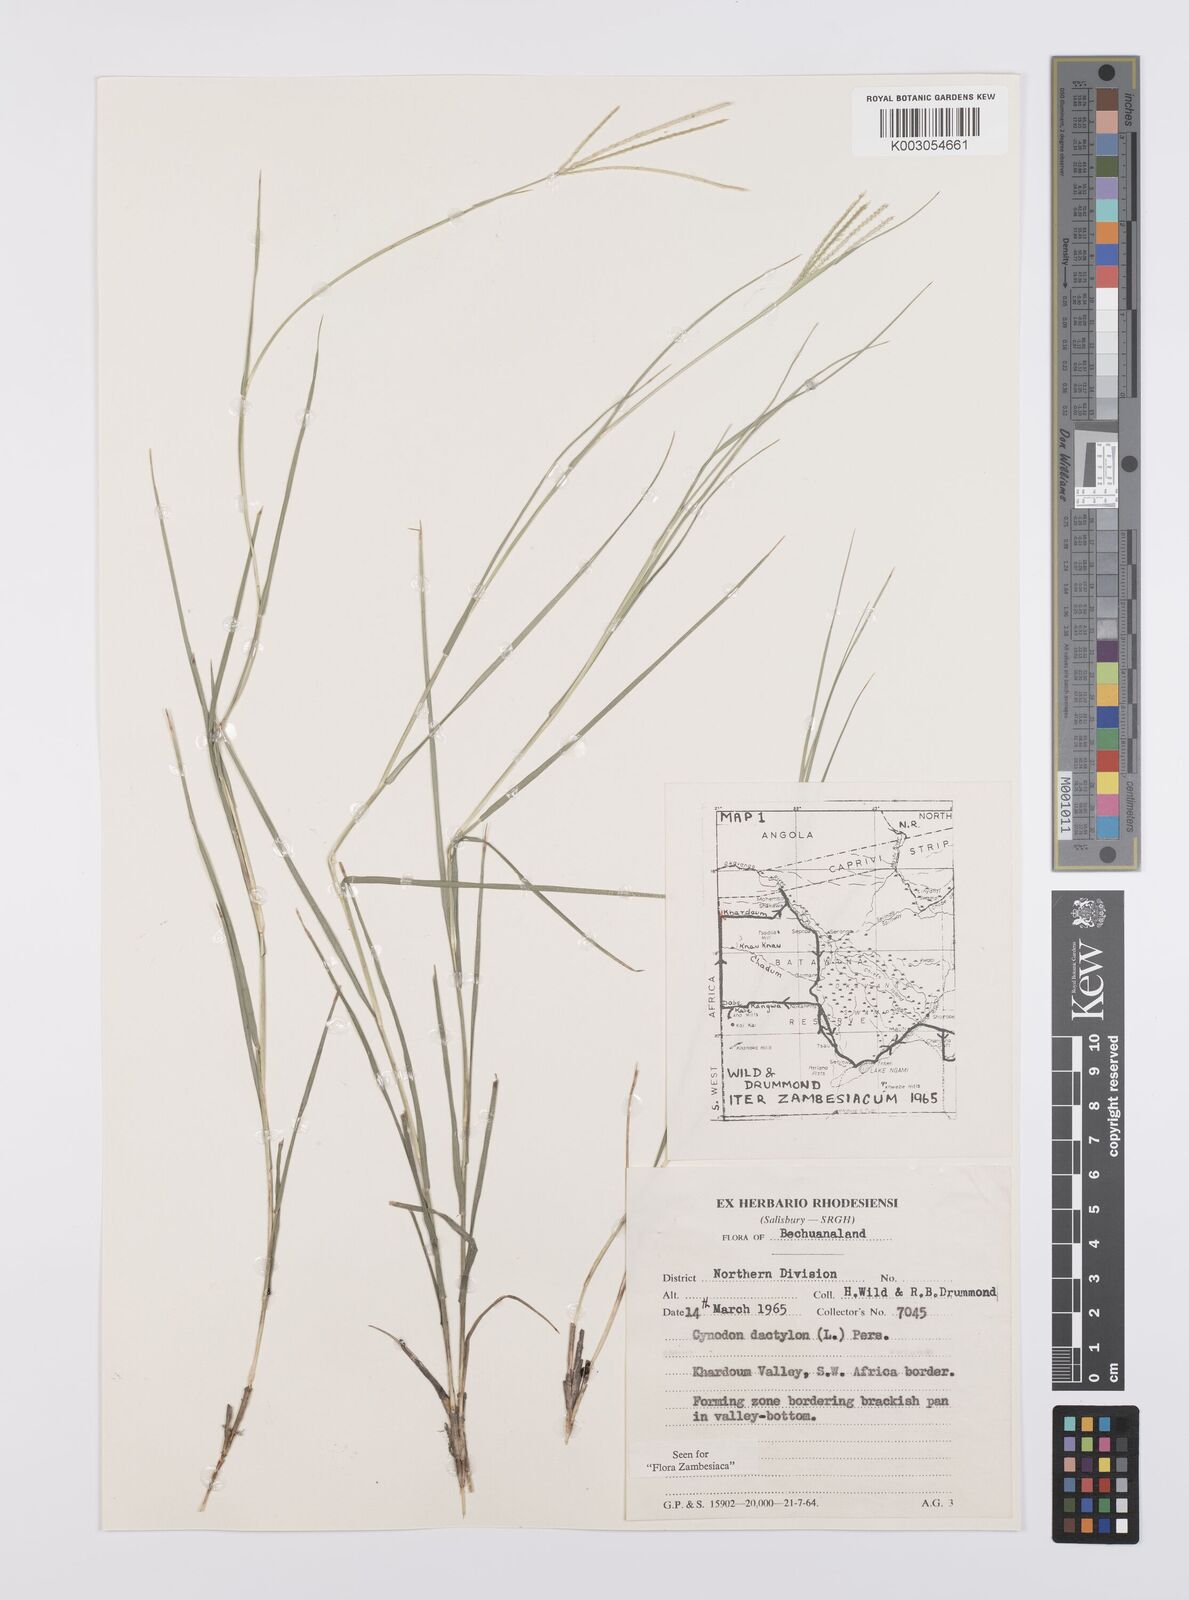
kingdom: Plantae
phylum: Tracheophyta
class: Liliopsida
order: Poales
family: Poaceae
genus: Cynodon
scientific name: Cynodon dactylon
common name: Bermuda grass
